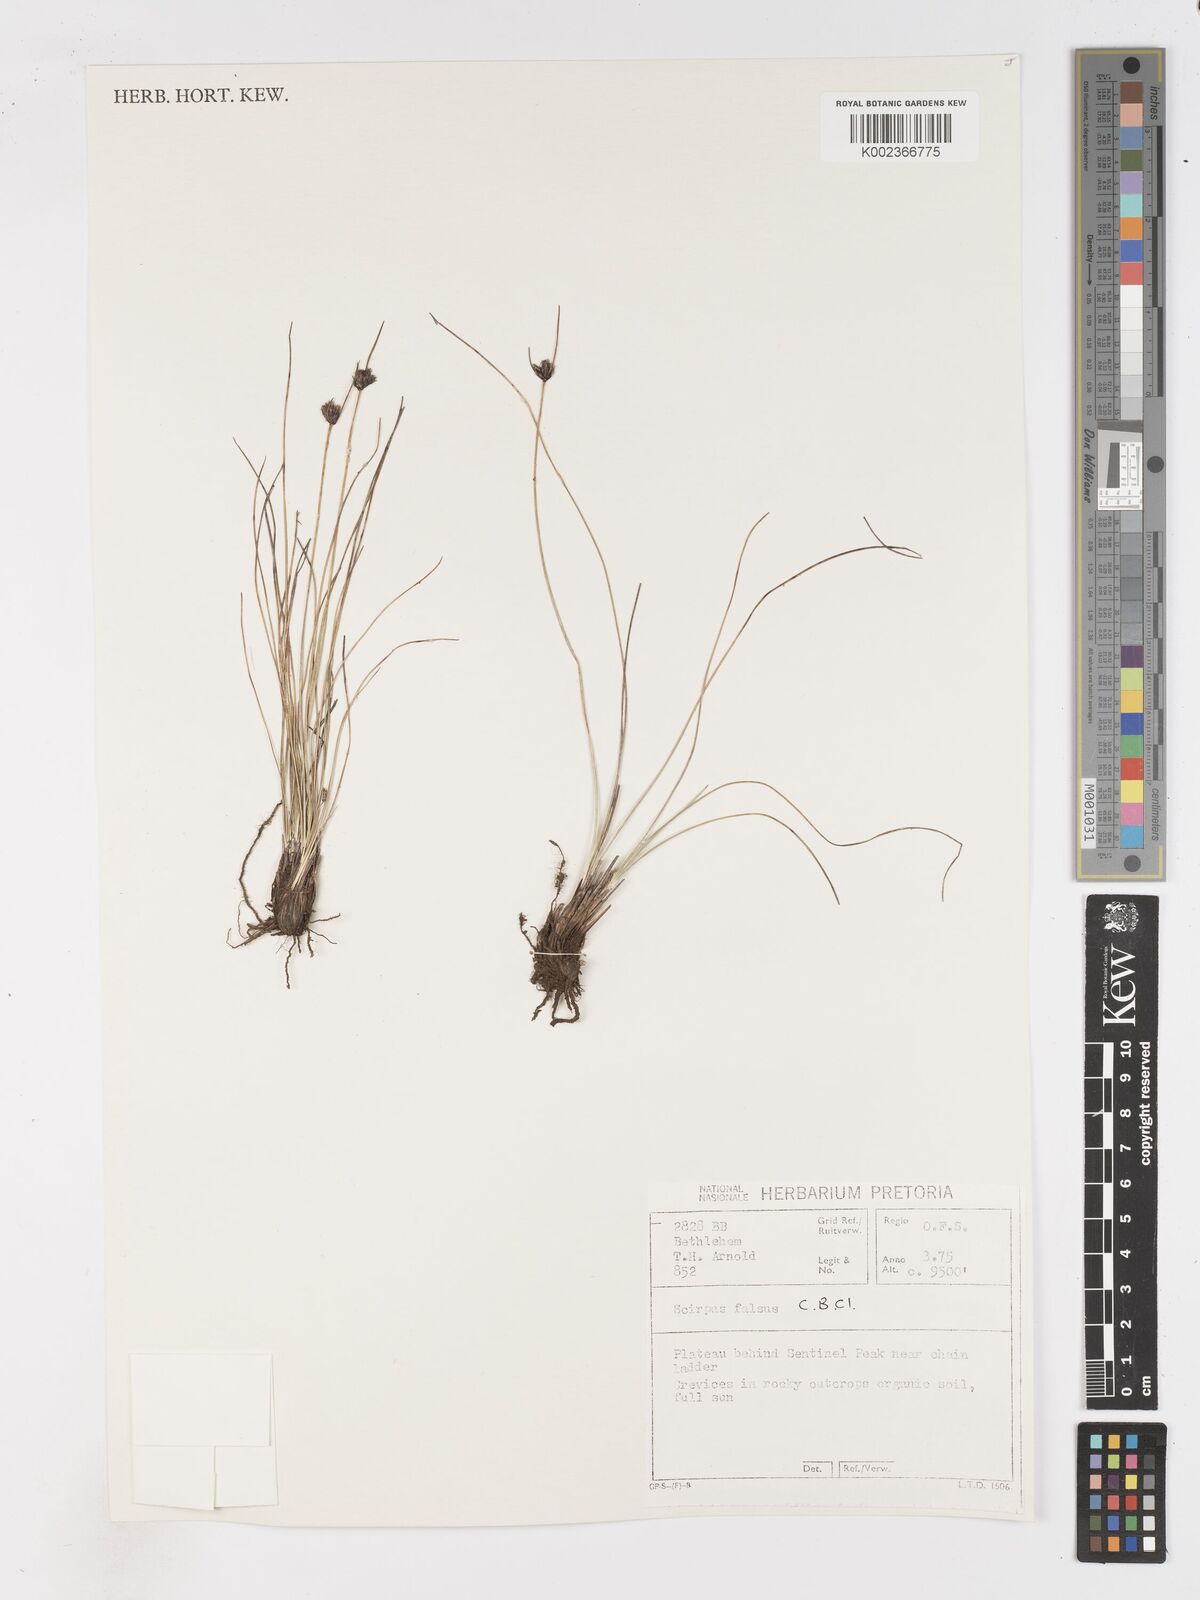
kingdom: Plantae
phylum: Tracheophyta
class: Liliopsida
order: Poales
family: Cyperaceae
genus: Dracoscirpoides
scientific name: Dracoscirpoides falsa
